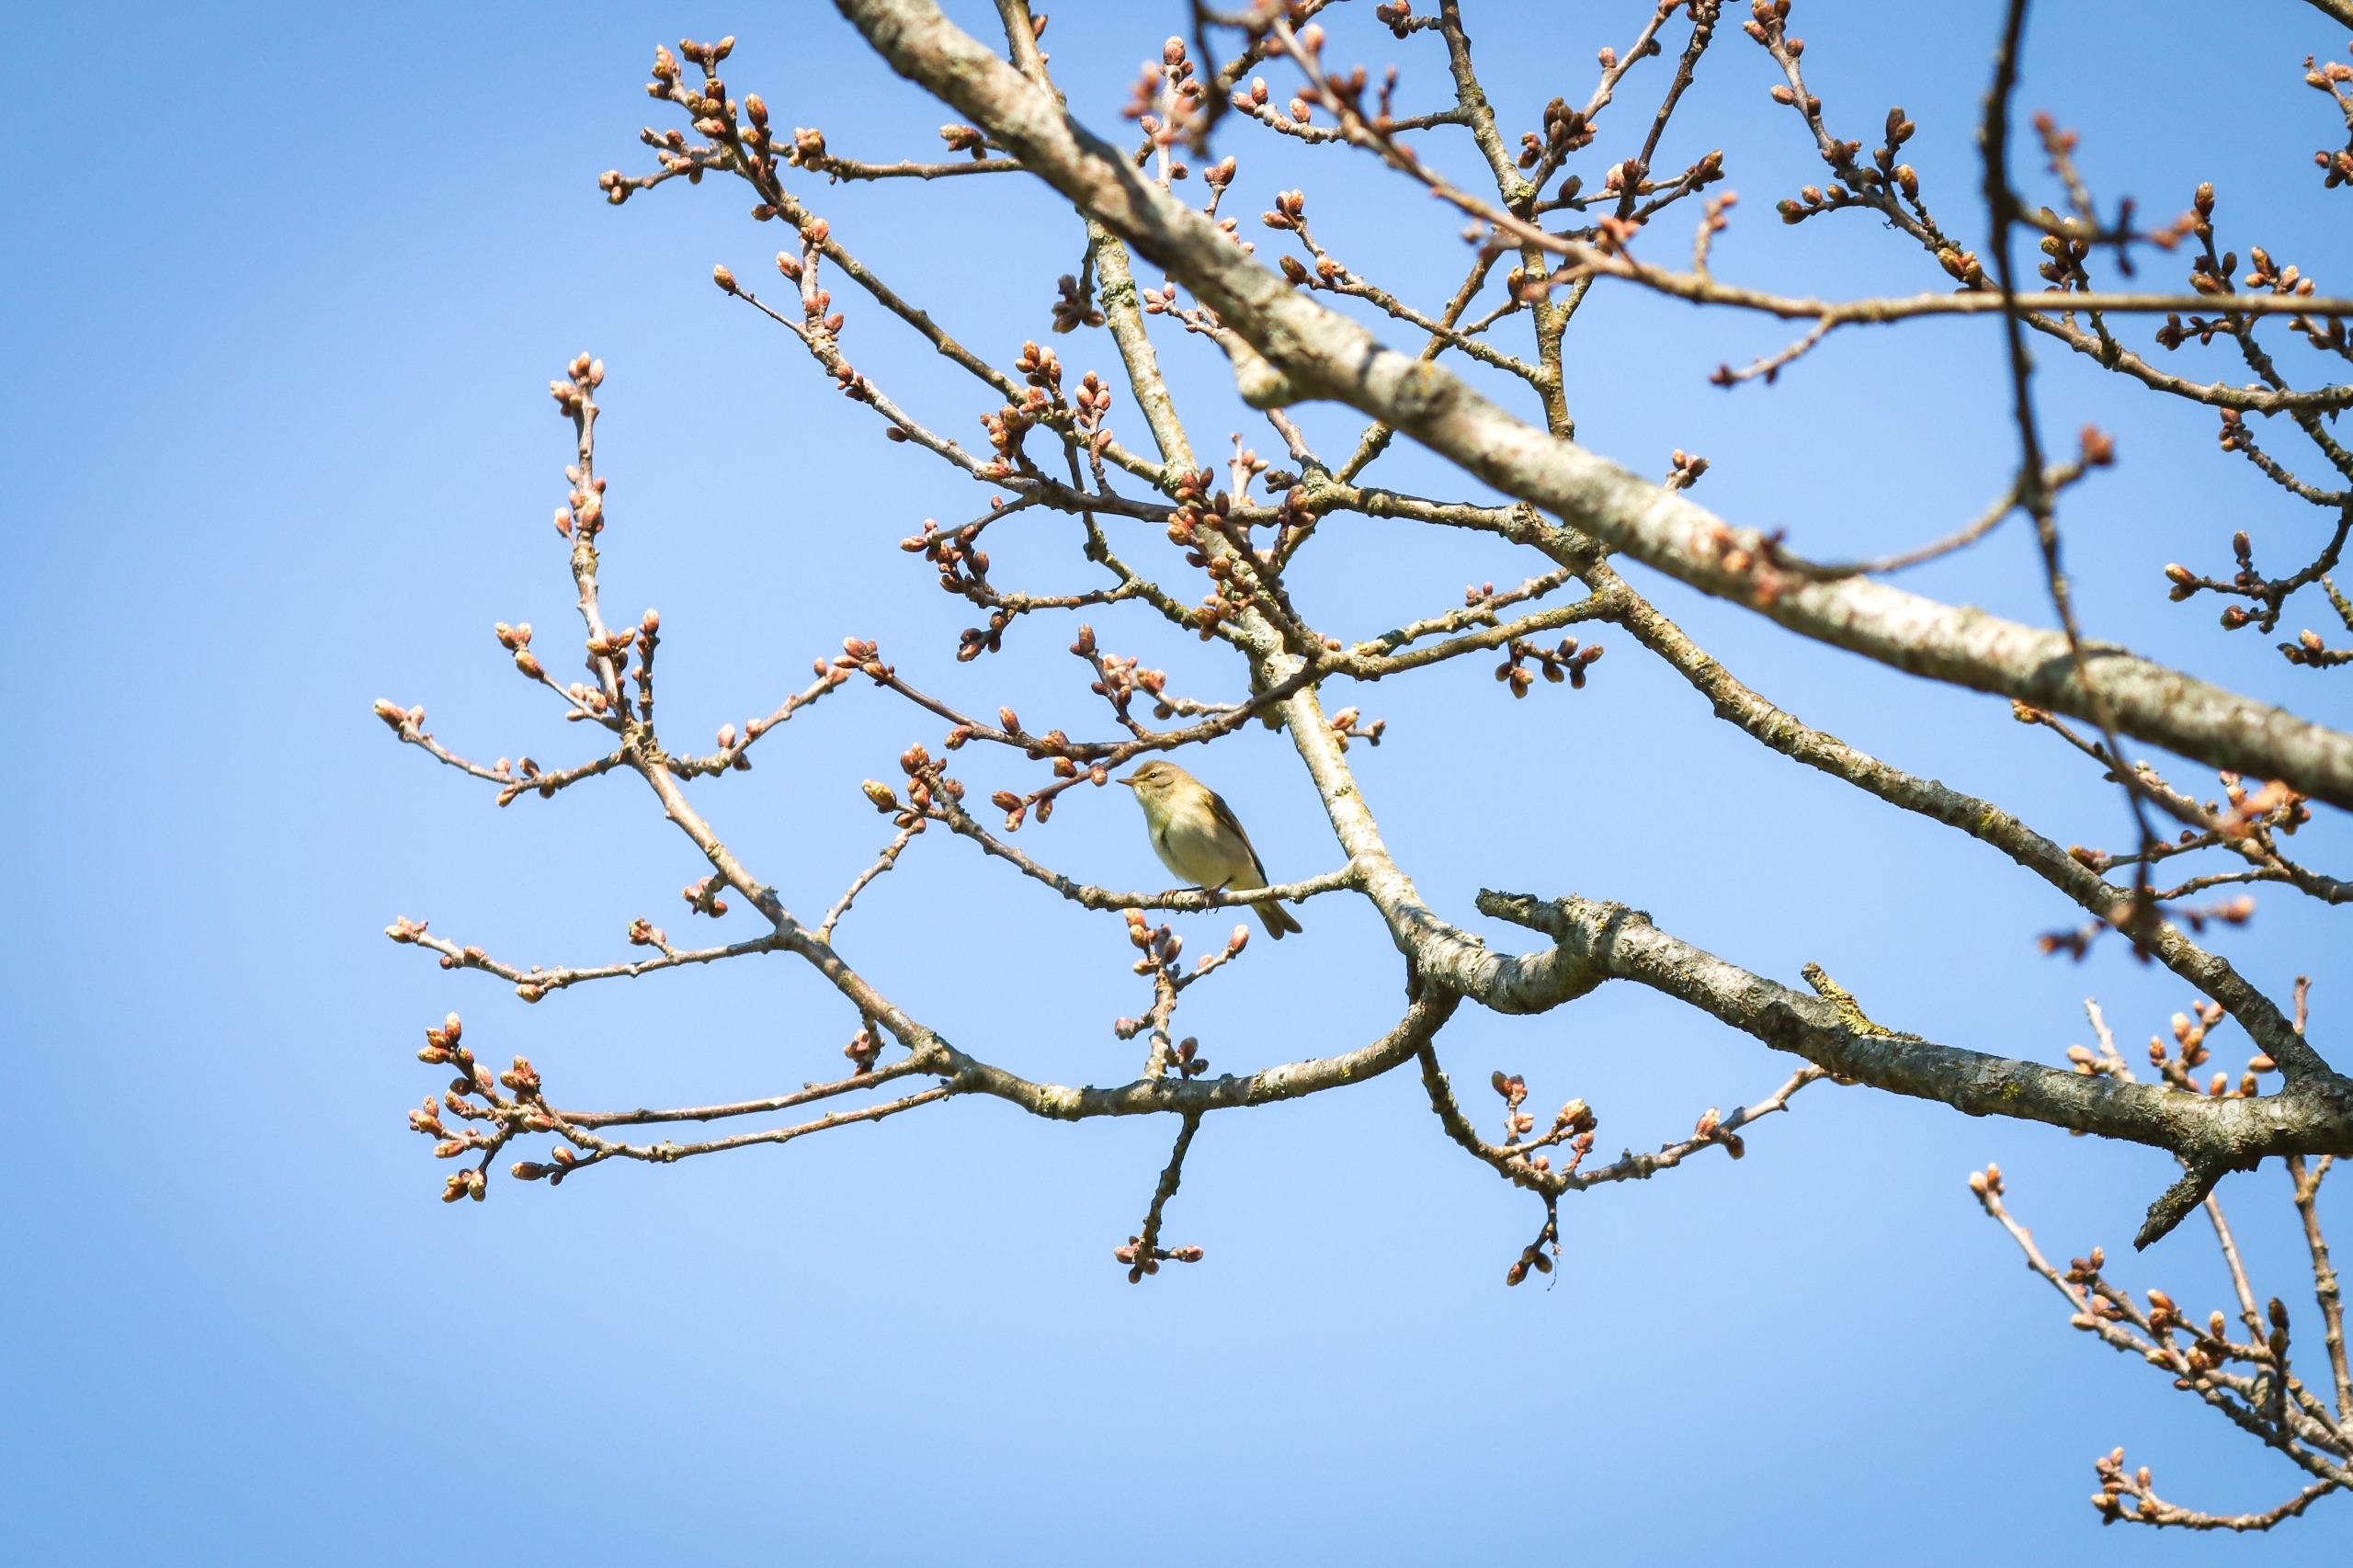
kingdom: Animalia
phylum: Chordata
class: Aves
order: Passeriformes
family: Phylloscopidae
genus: Phylloscopus
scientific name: Phylloscopus collybita
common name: Gransanger
